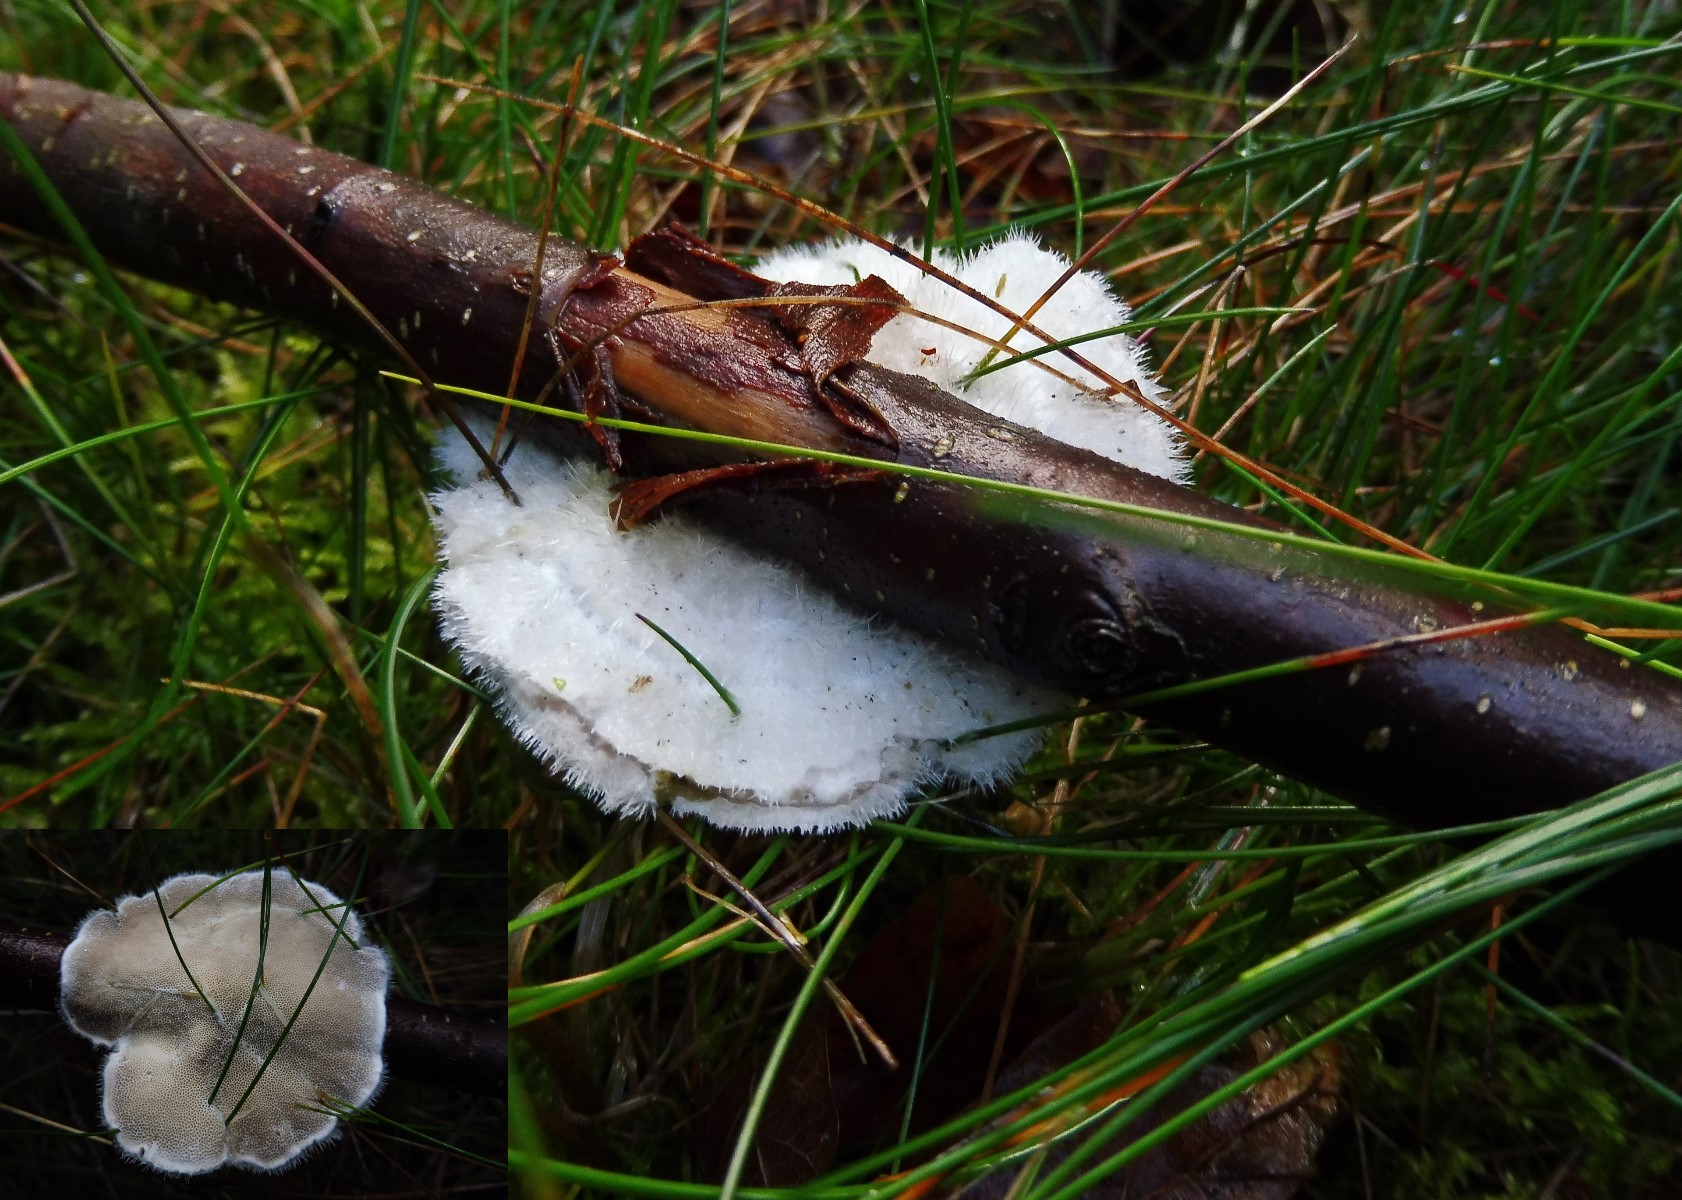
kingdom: Fungi
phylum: Basidiomycota
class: Agaricomycetes
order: Polyporales
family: Polyporaceae
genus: Trametes
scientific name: Trametes hirsuta
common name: håret læderporesvamp
